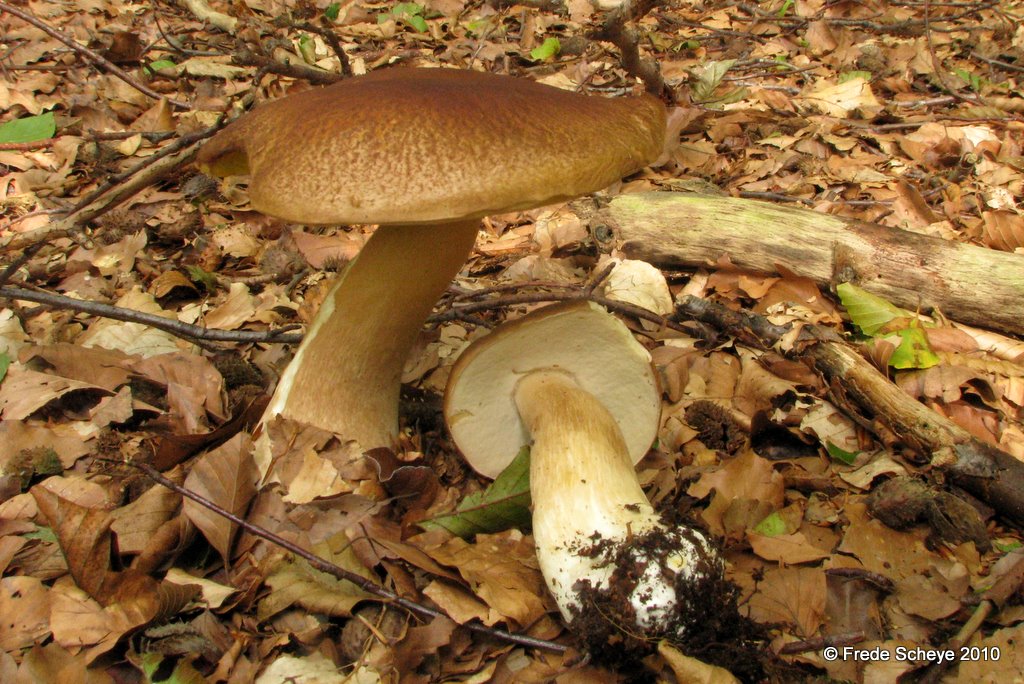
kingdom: Fungi
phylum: Basidiomycota
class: Agaricomycetes
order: Boletales
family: Boletaceae
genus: Boletus
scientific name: Boletus edulis
